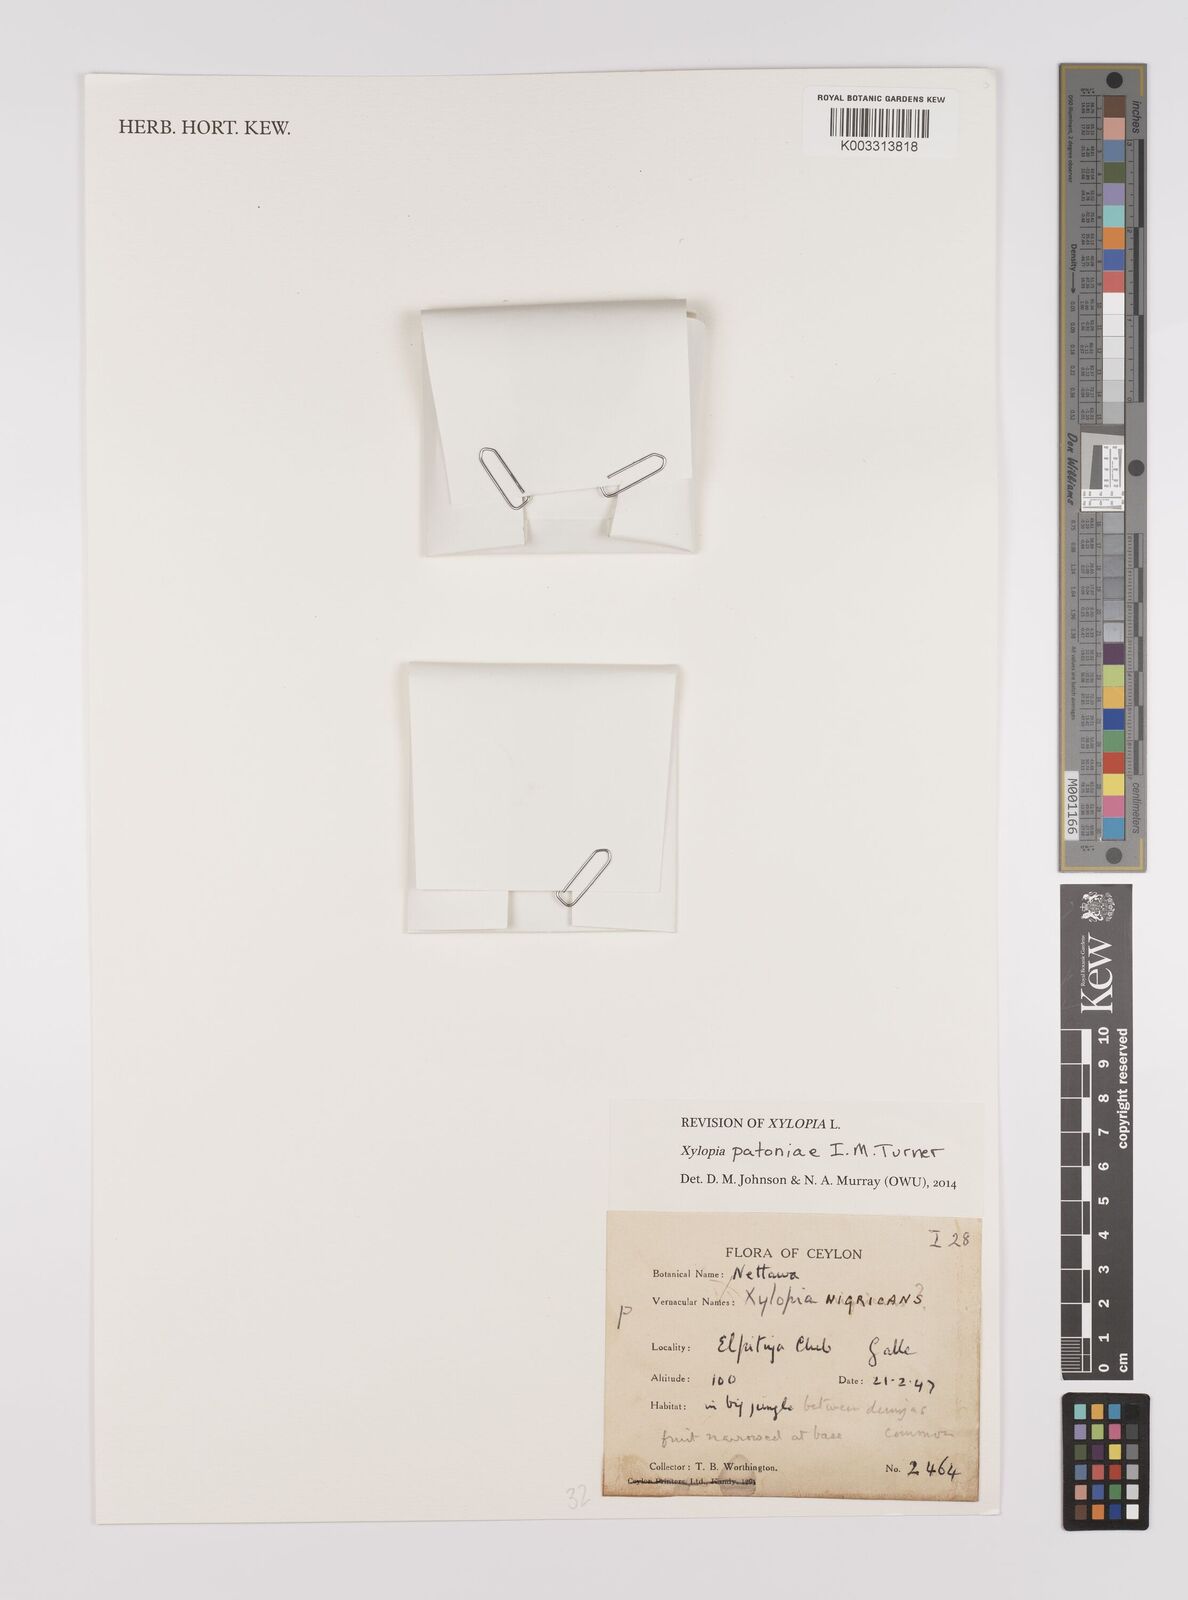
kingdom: Plantae
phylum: Tracheophyta
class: Magnoliopsida
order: Magnoliales
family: Annonaceae
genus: Xylopia
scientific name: Xylopia
